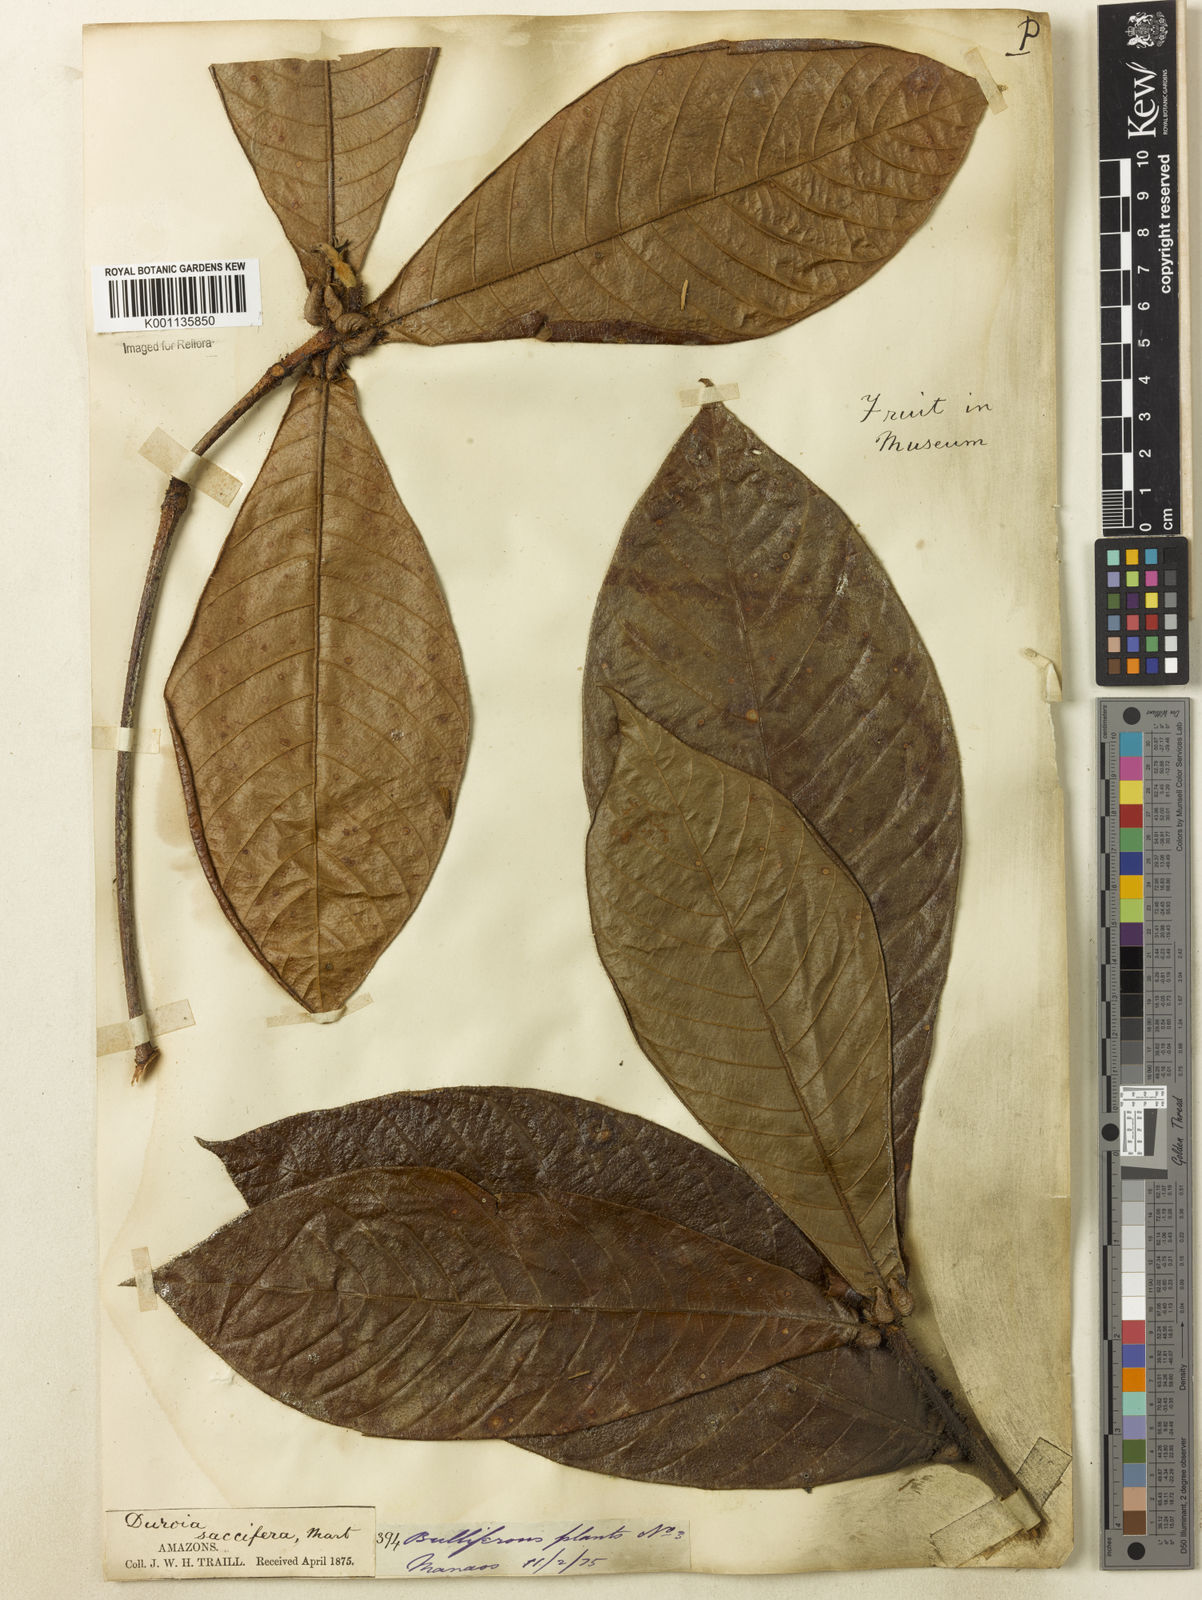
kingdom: Plantae
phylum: Tracheophyta
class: Magnoliopsida
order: Gentianales
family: Rubiaceae
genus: Duroia
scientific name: Duroia saccifera
